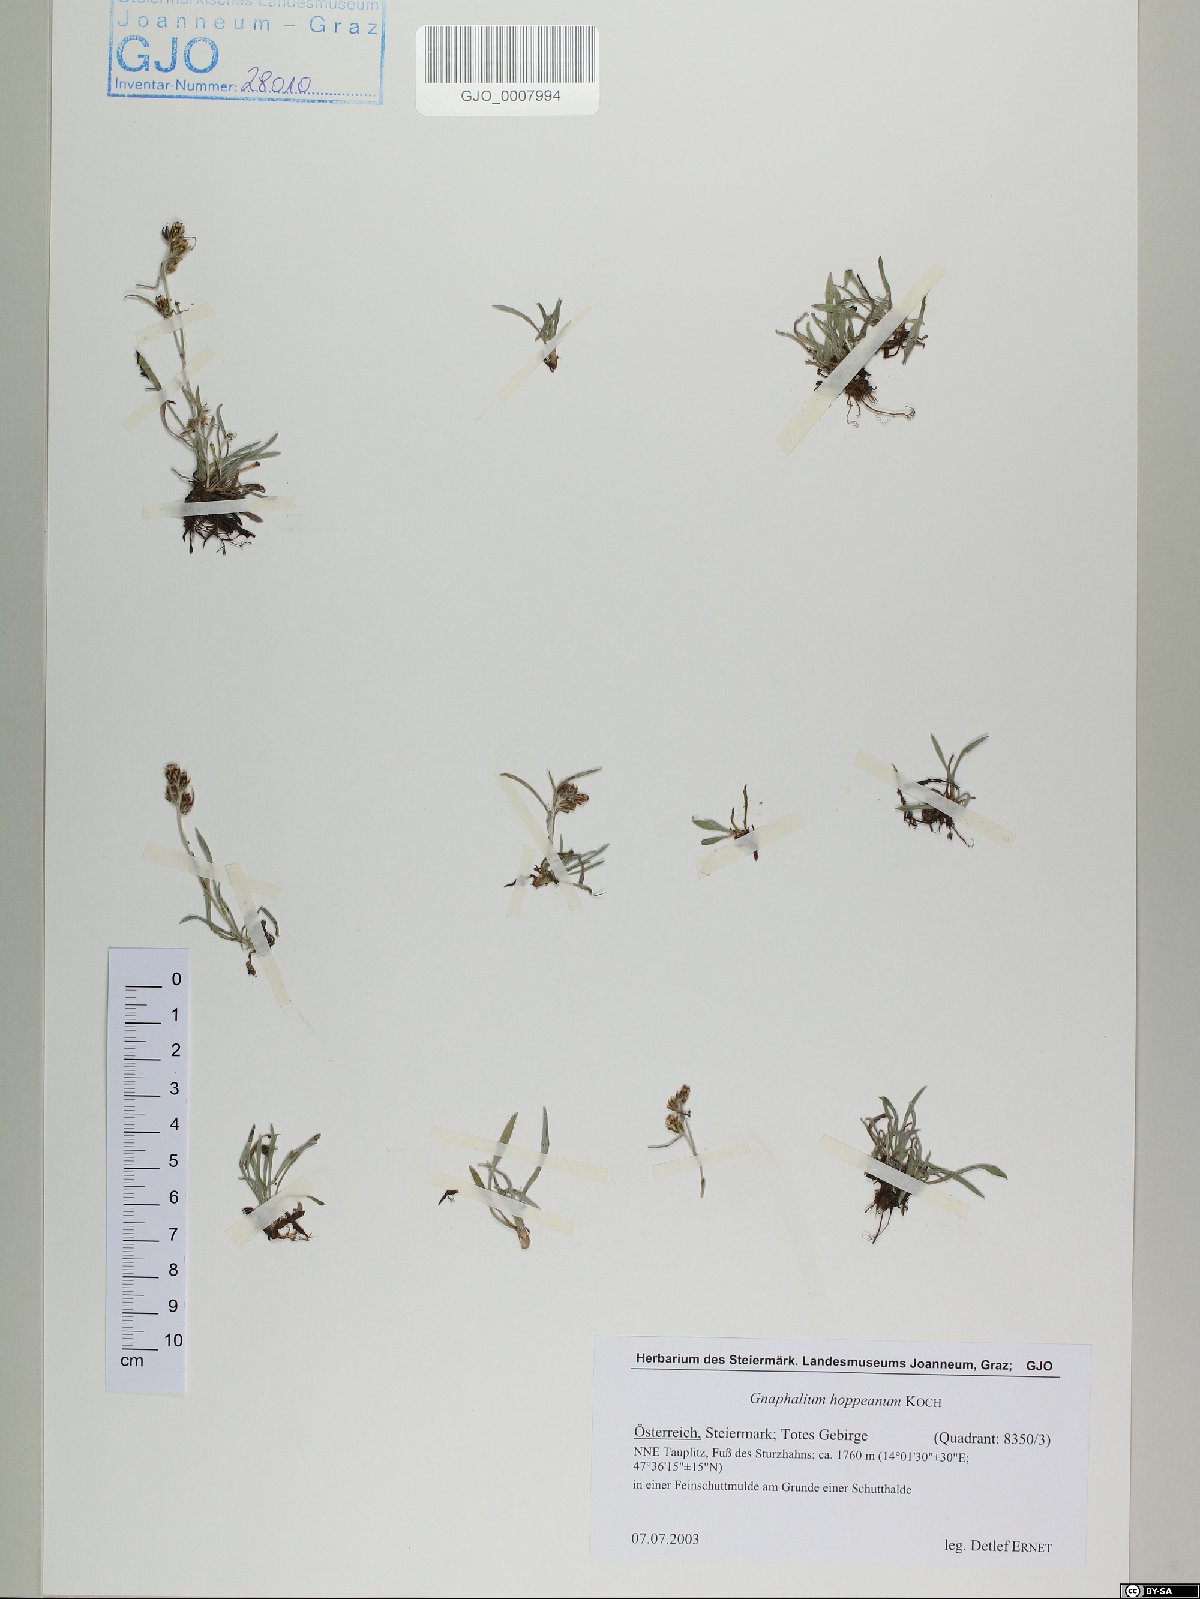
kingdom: Plantae
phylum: Tracheophyta
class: Magnoliopsida
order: Asterales
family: Asteraceae
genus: Omalotheca
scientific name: Omalotheca hoppeana
